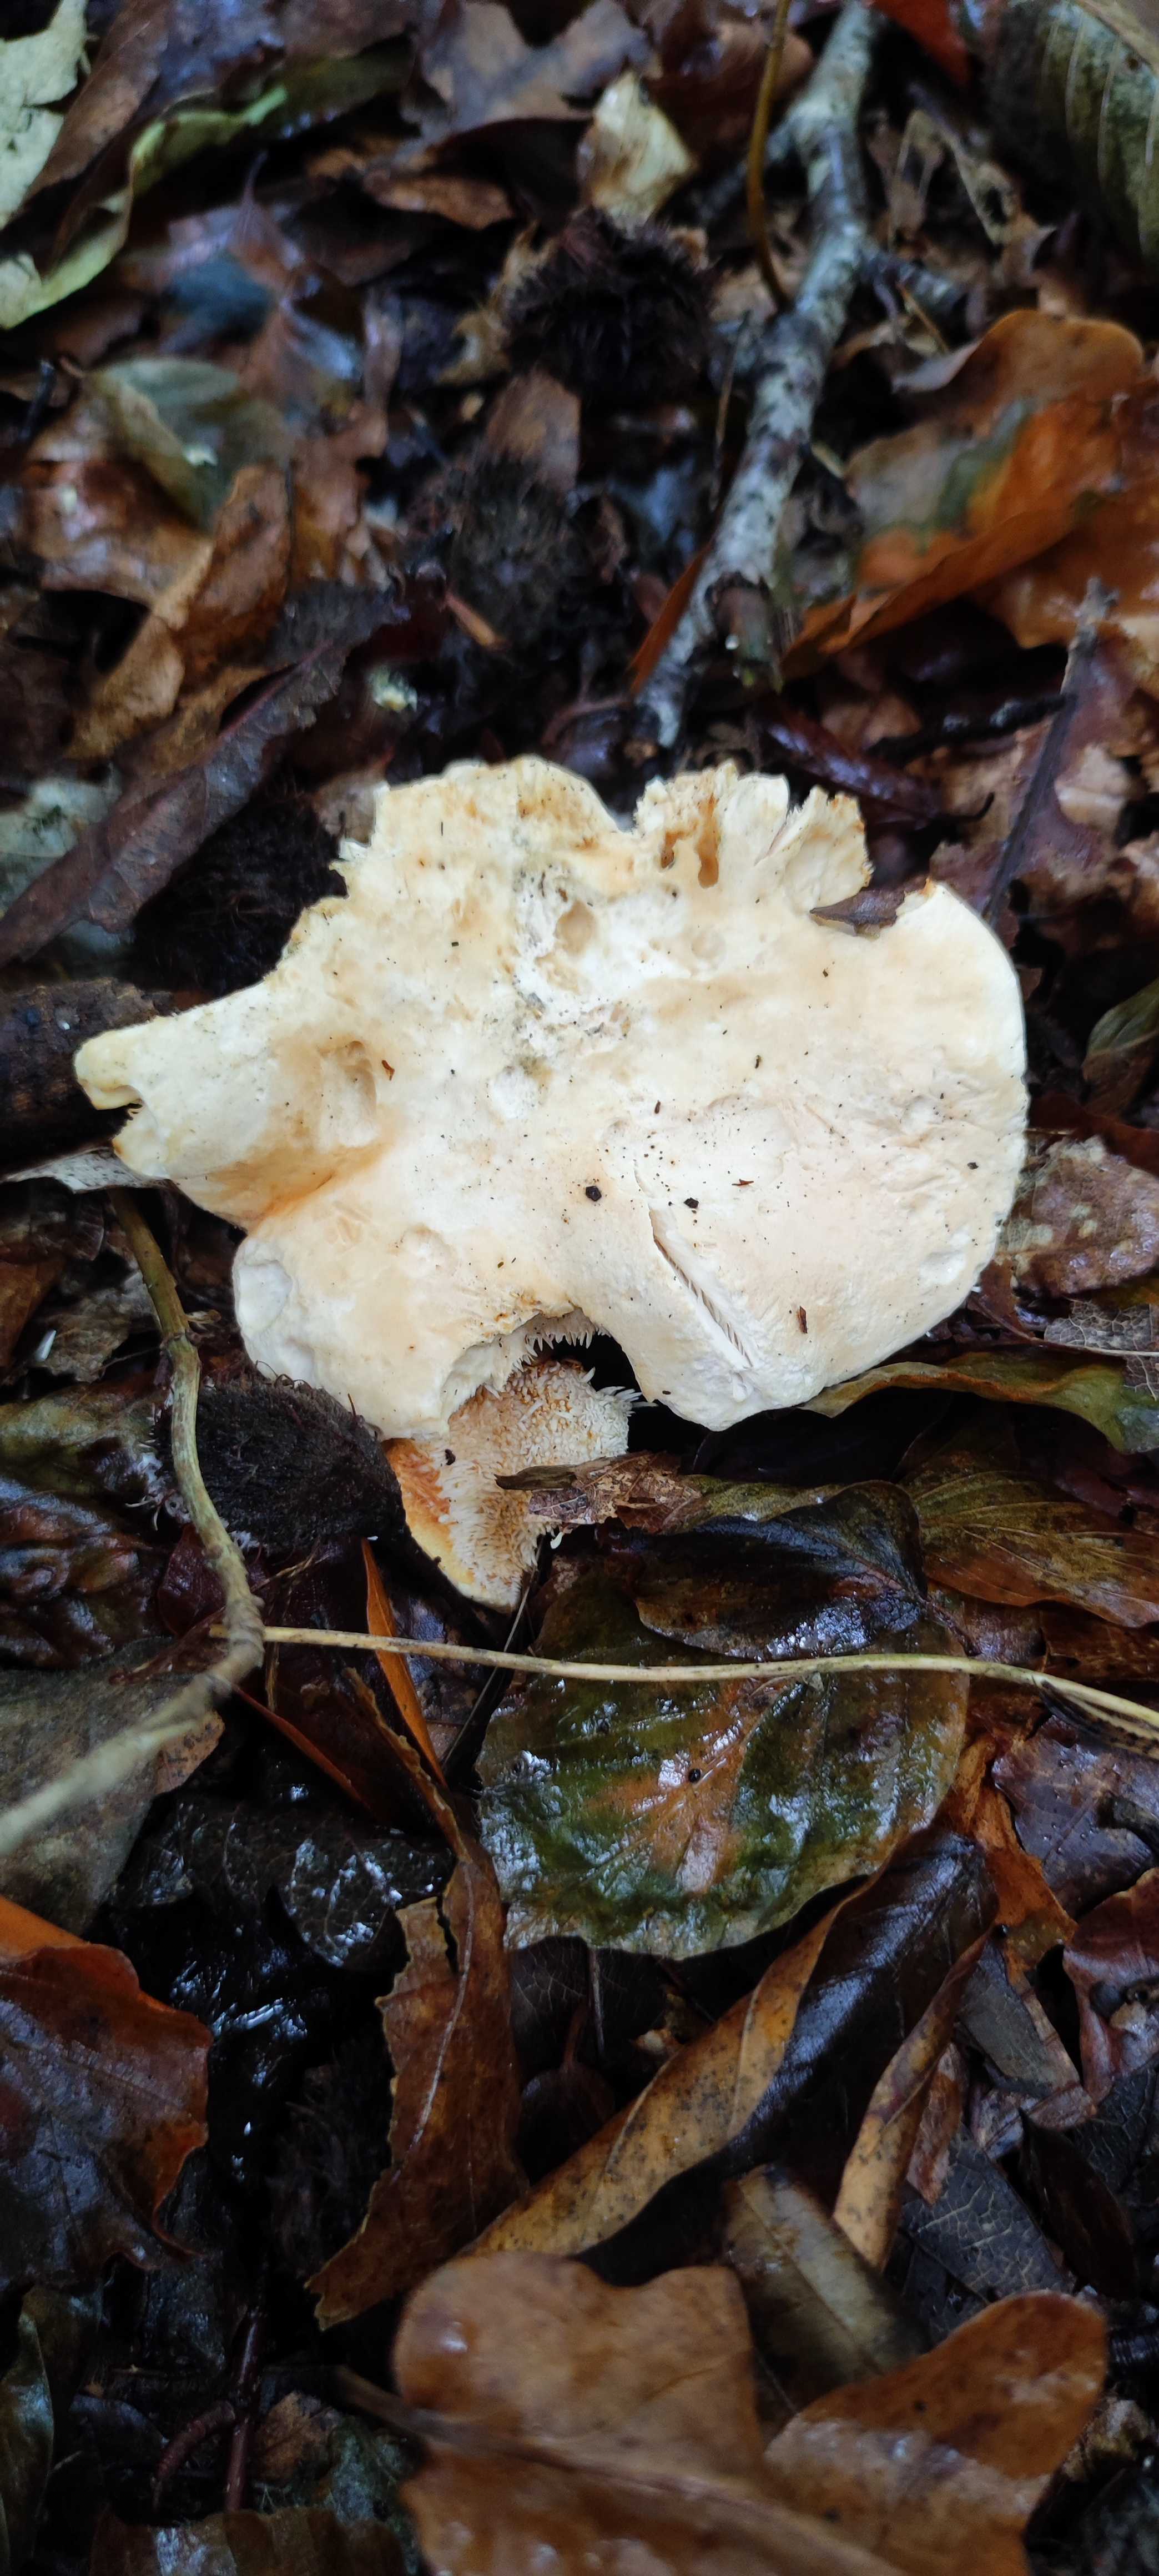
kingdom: Fungi
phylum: Basidiomycota
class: Agaricomycetes
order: Cantharellales
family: Hydnaceae
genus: Hydnum
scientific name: Hydnum repandum
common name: almindelig pigsvamp
